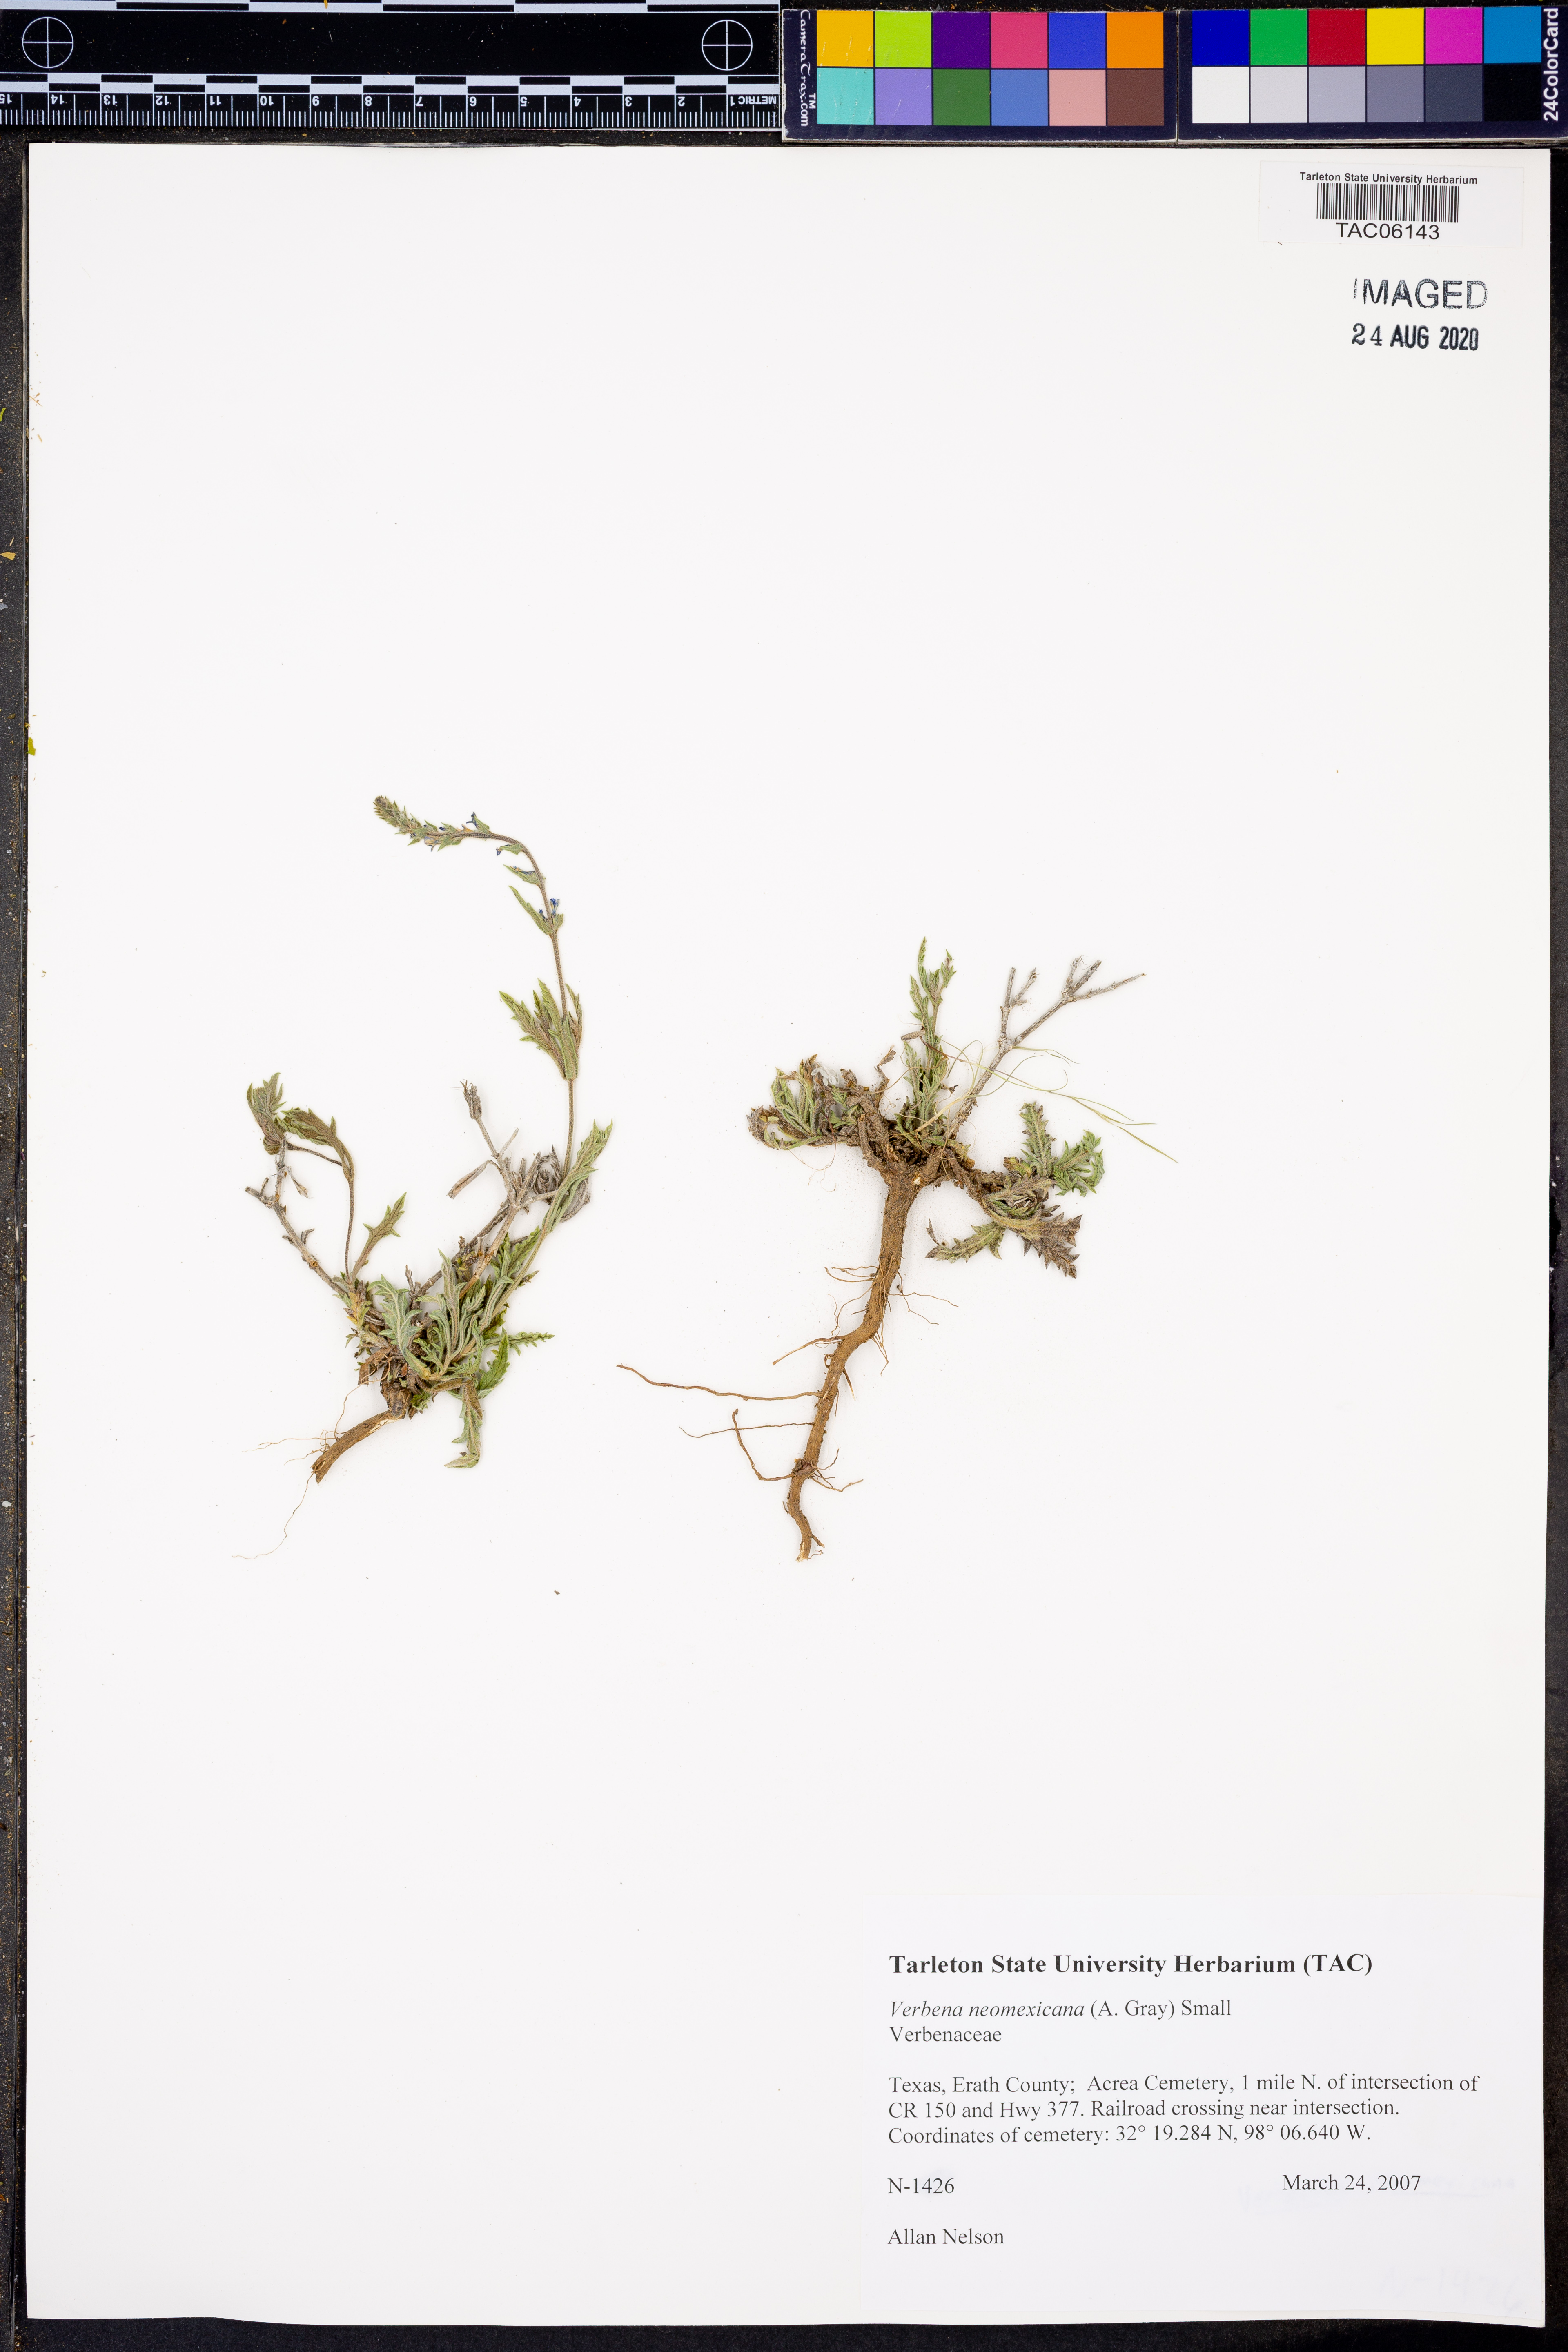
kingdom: Plantae
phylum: Tracheophyta
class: Magnoliopsida
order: Lamiales
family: Verbenaceae
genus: Verbena
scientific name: Verbena neomexicana
